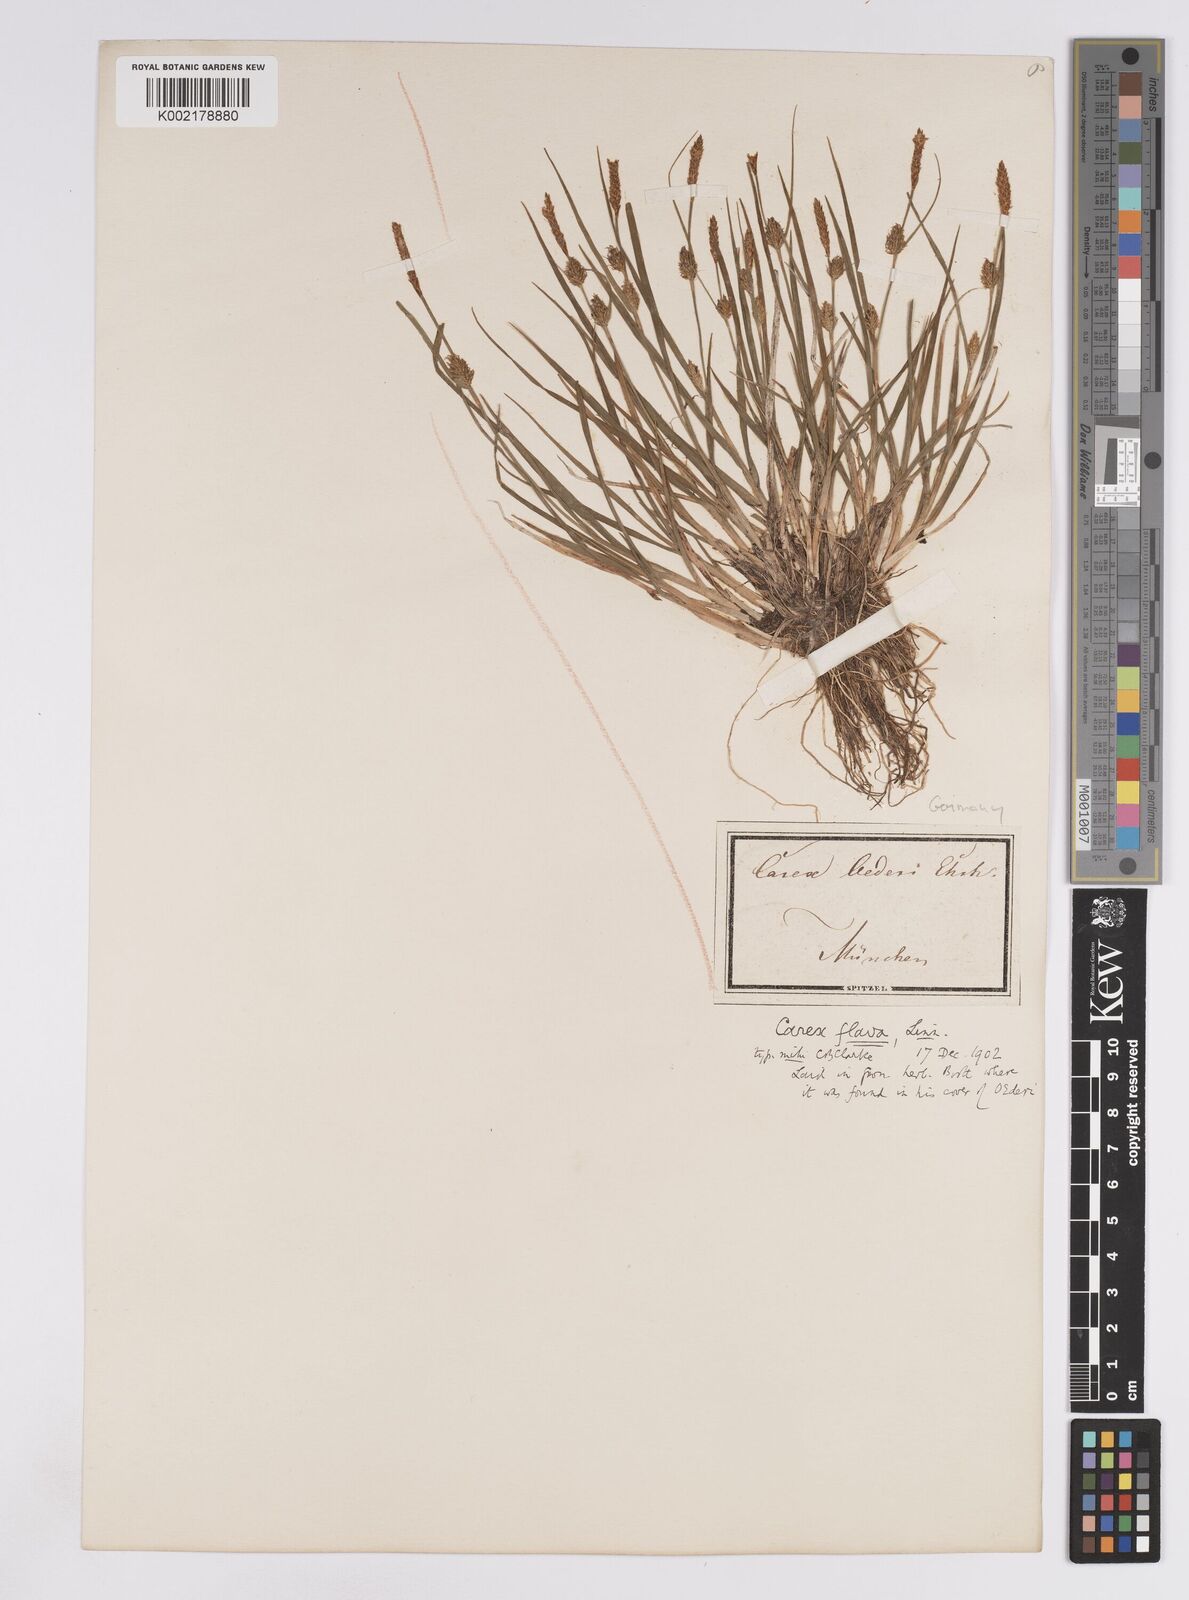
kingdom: Plantae
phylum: Tracheophyta
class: Liliopsida
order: Poales
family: Cyperaceae
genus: Carex
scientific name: Carex lepidocarpa
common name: Long-stalked yellow-sedge
